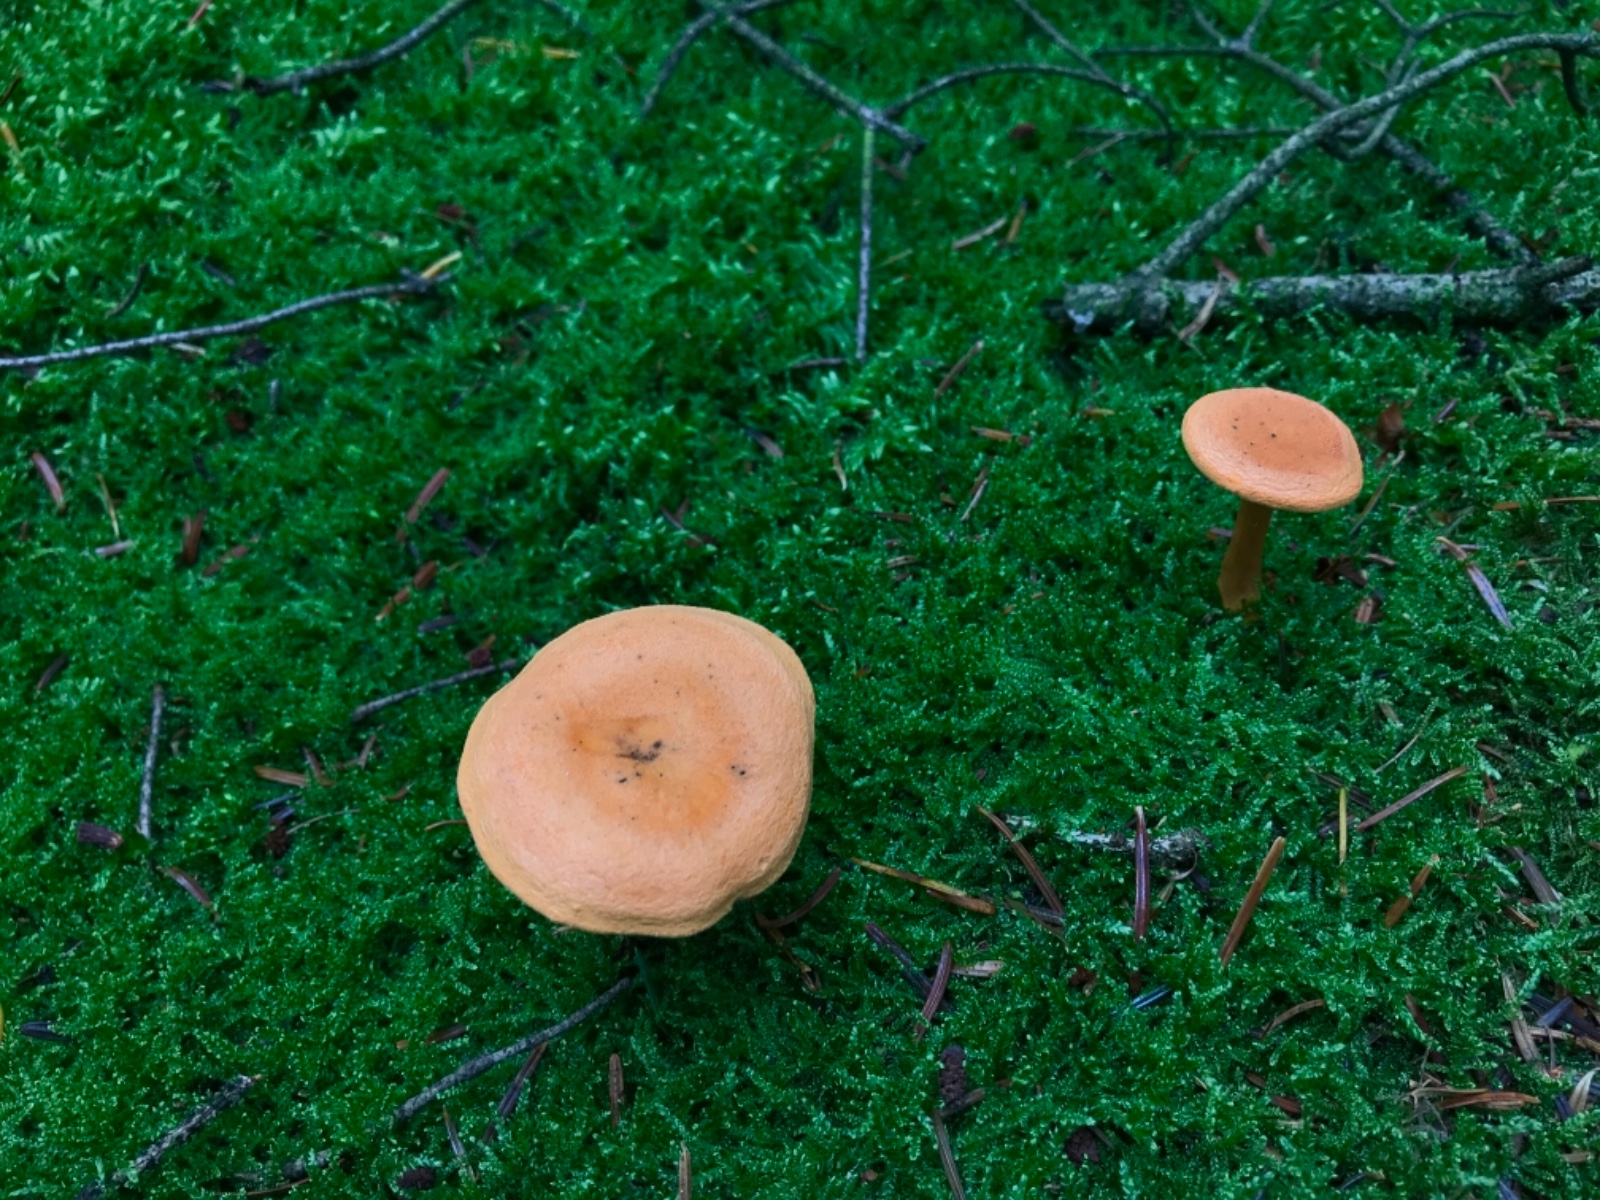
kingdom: Fungi
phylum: Basidiomycota
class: Agaricomycetes
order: Boletales
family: Hygrophoropsidaceae
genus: Hygrophoropsis
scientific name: Hygrophoropsis aurantiaca
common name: almindelig orangekantarel
